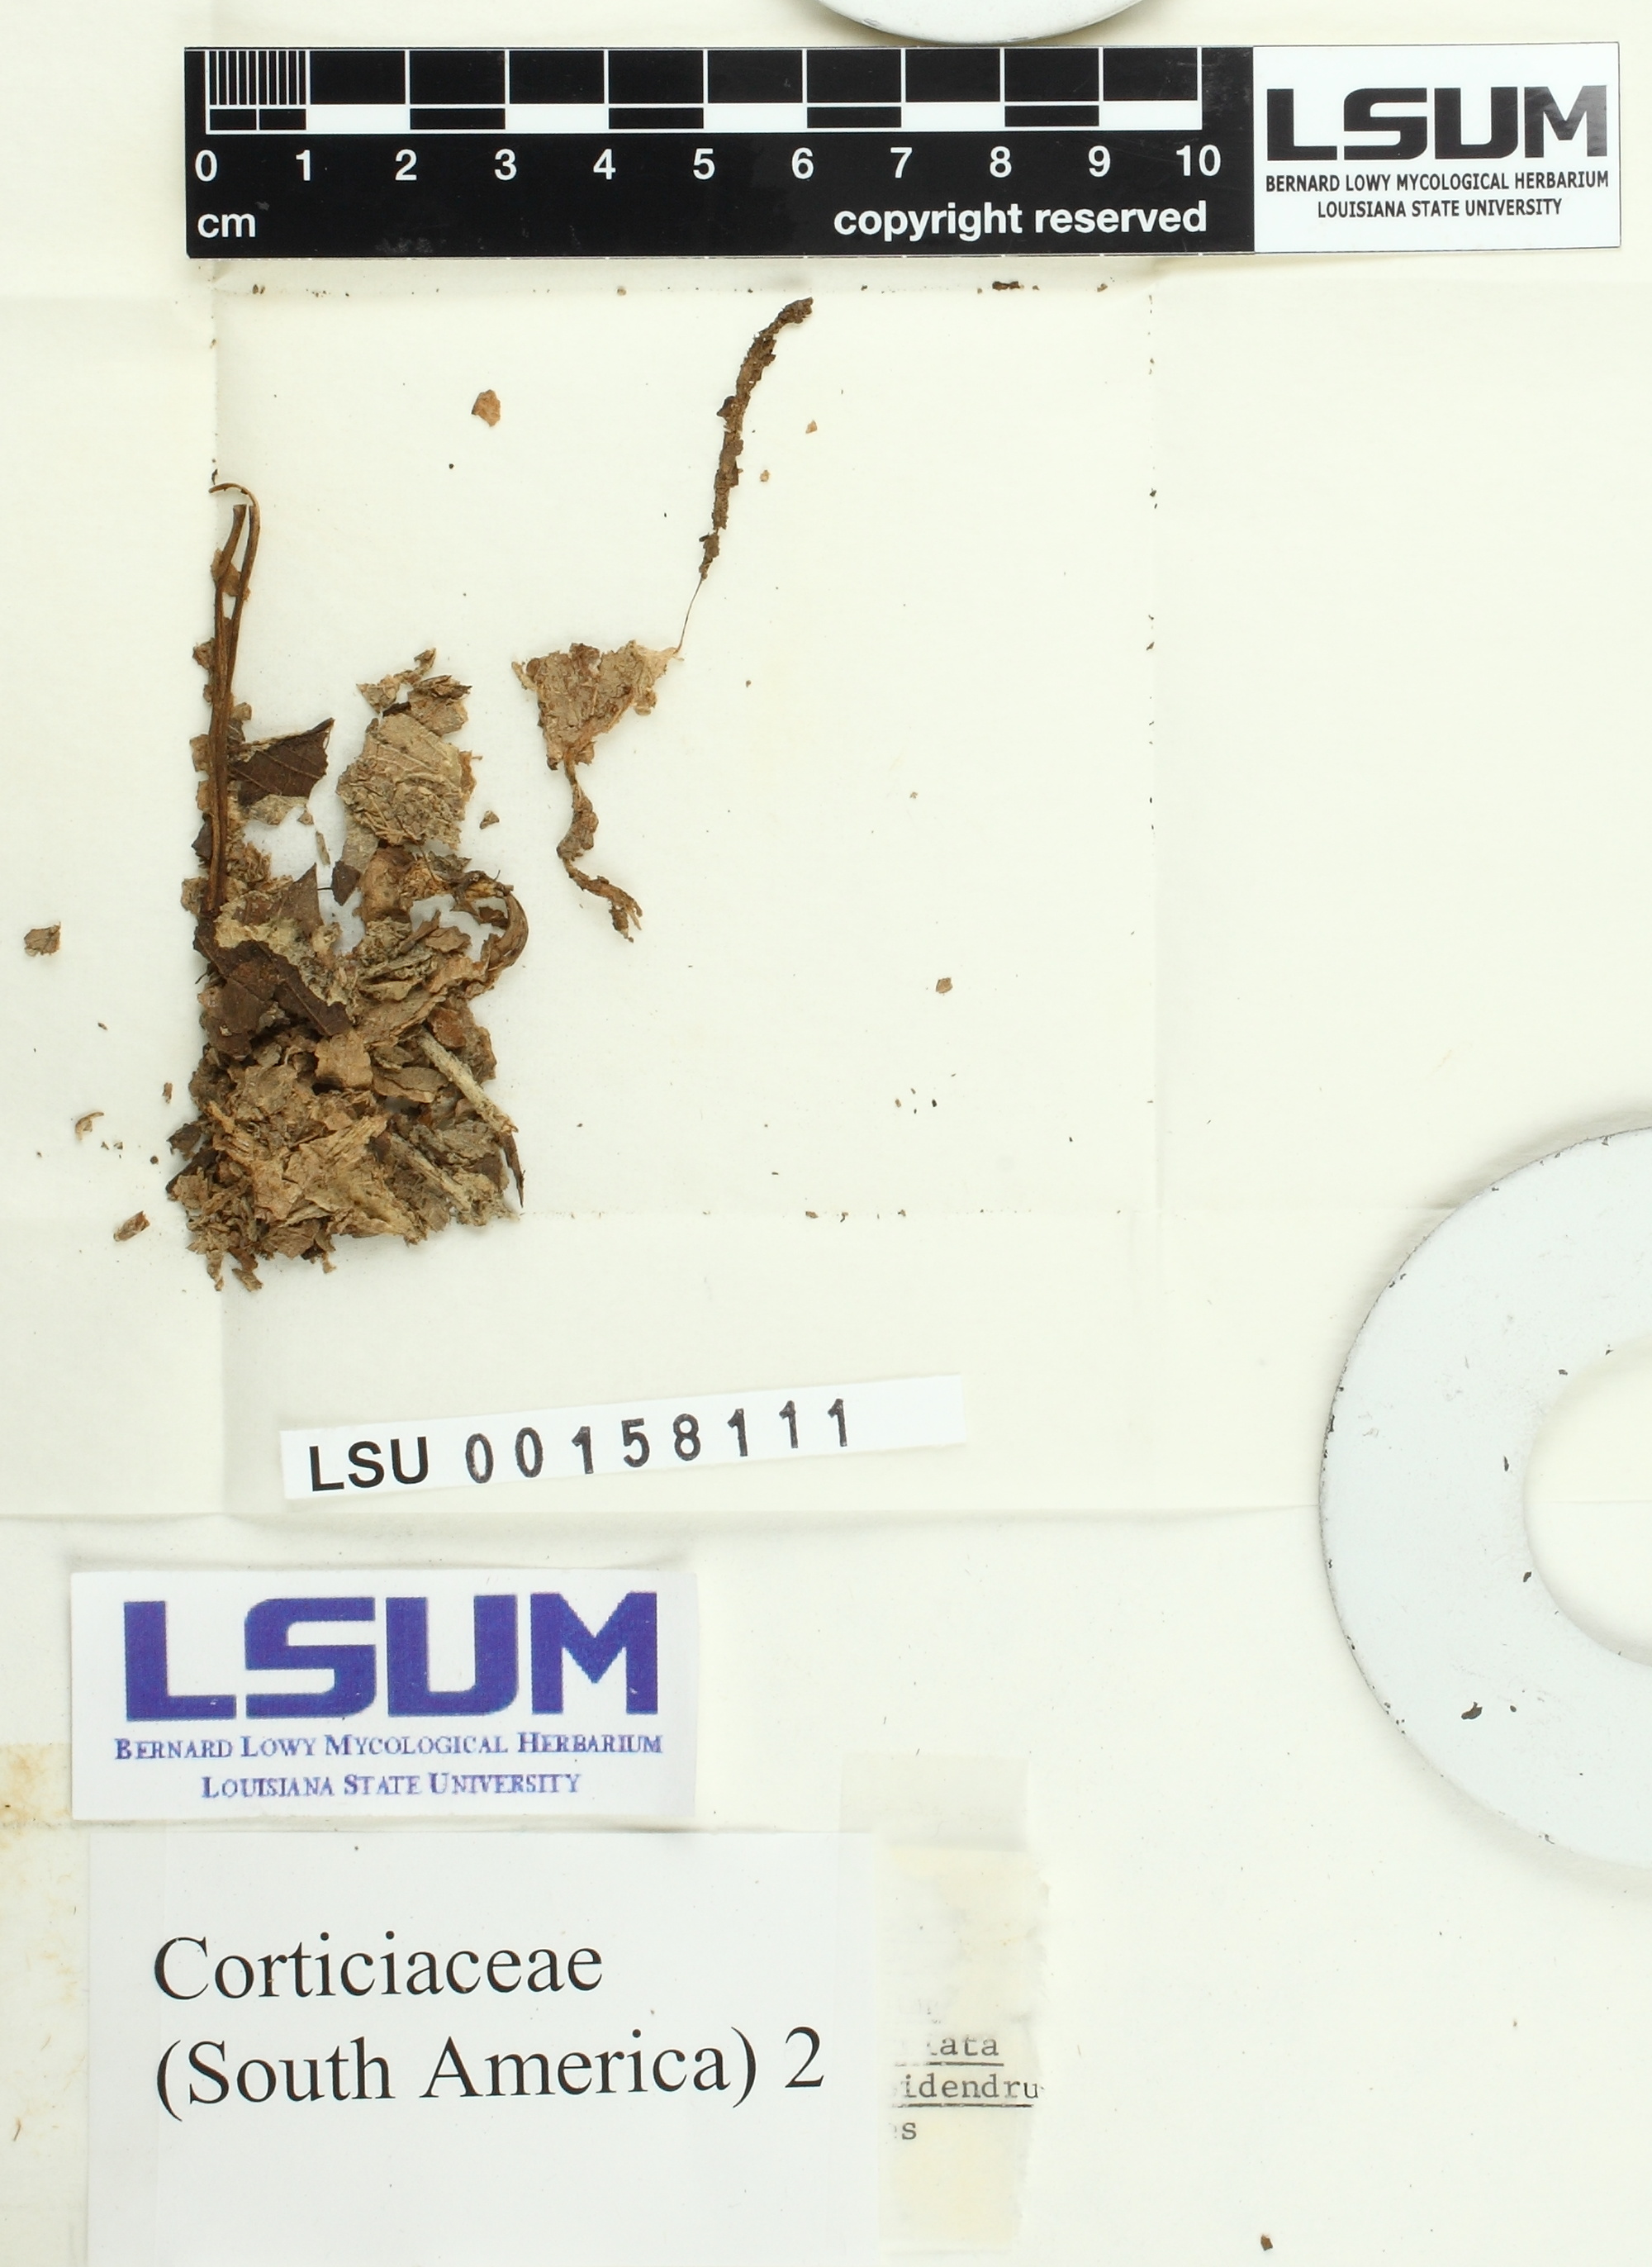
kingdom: Fungi
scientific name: Fungi
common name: Fungi
